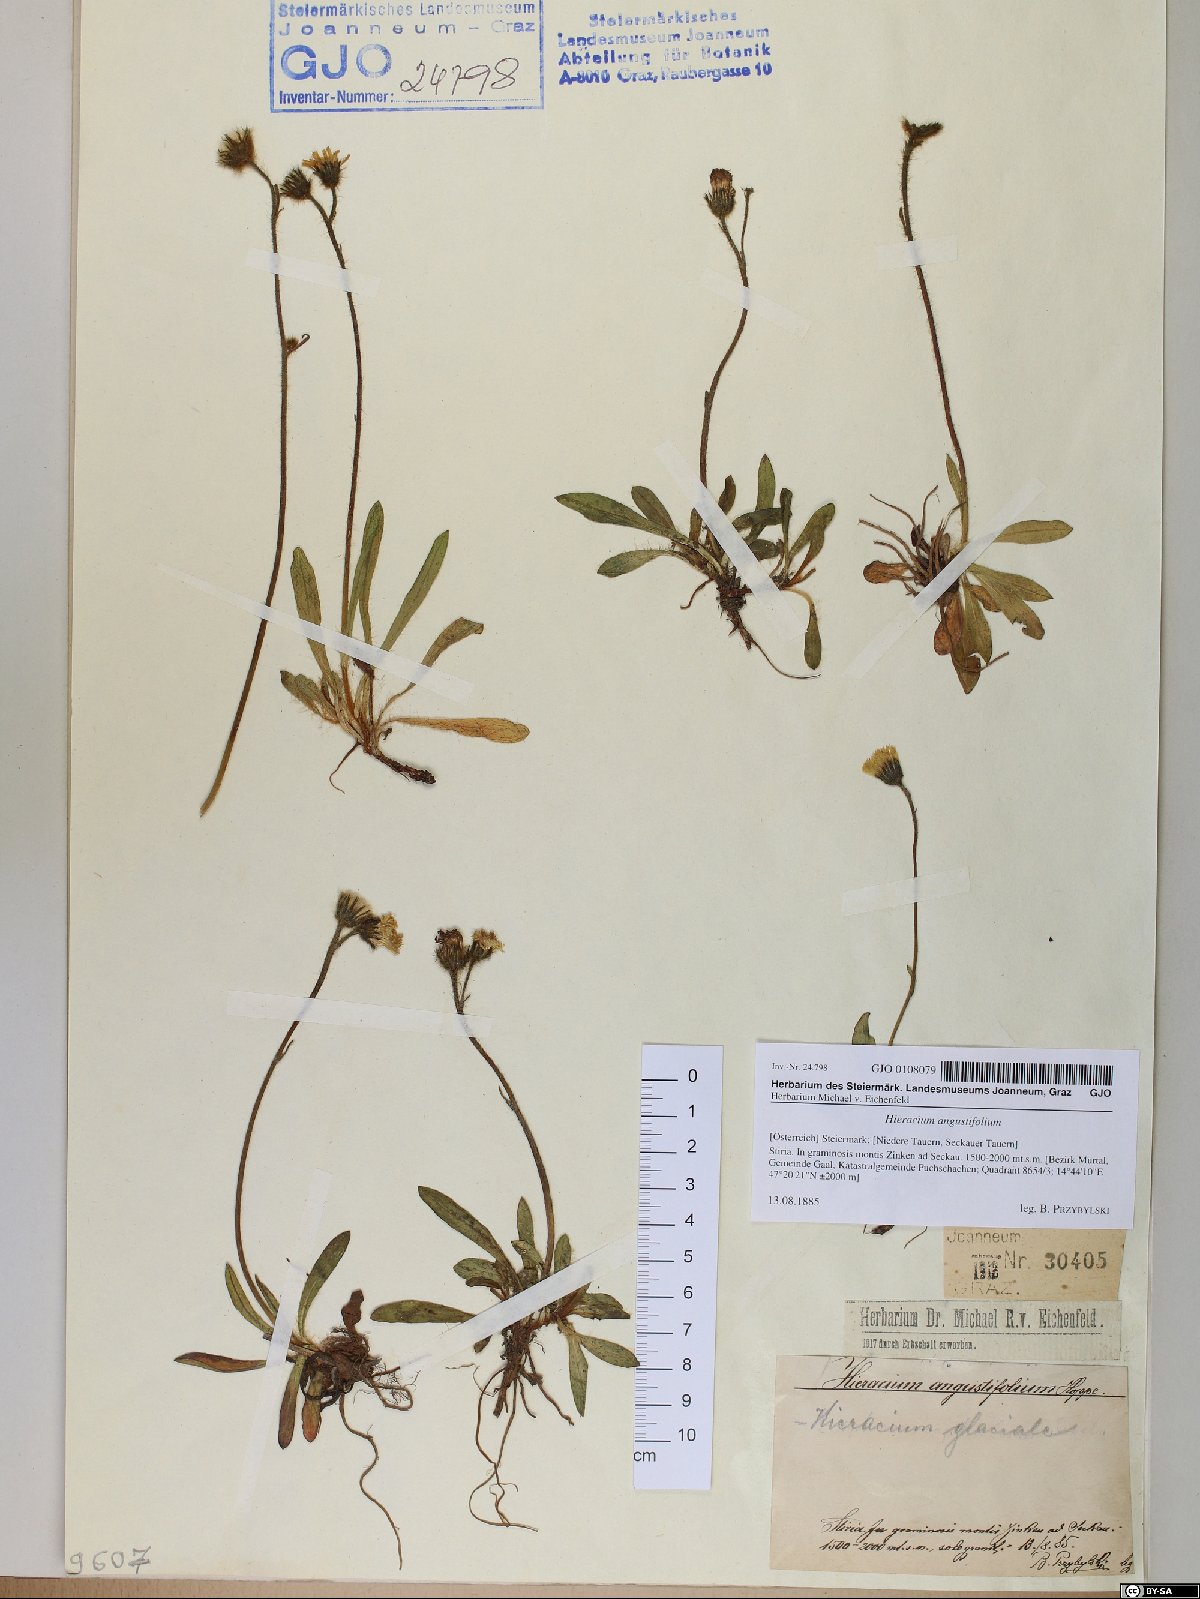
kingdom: Plantae
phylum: Tracheophyta
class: Magnoliopsida
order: Asterales
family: Asteraceae
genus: Pilosella
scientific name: Pilosella glacialis
